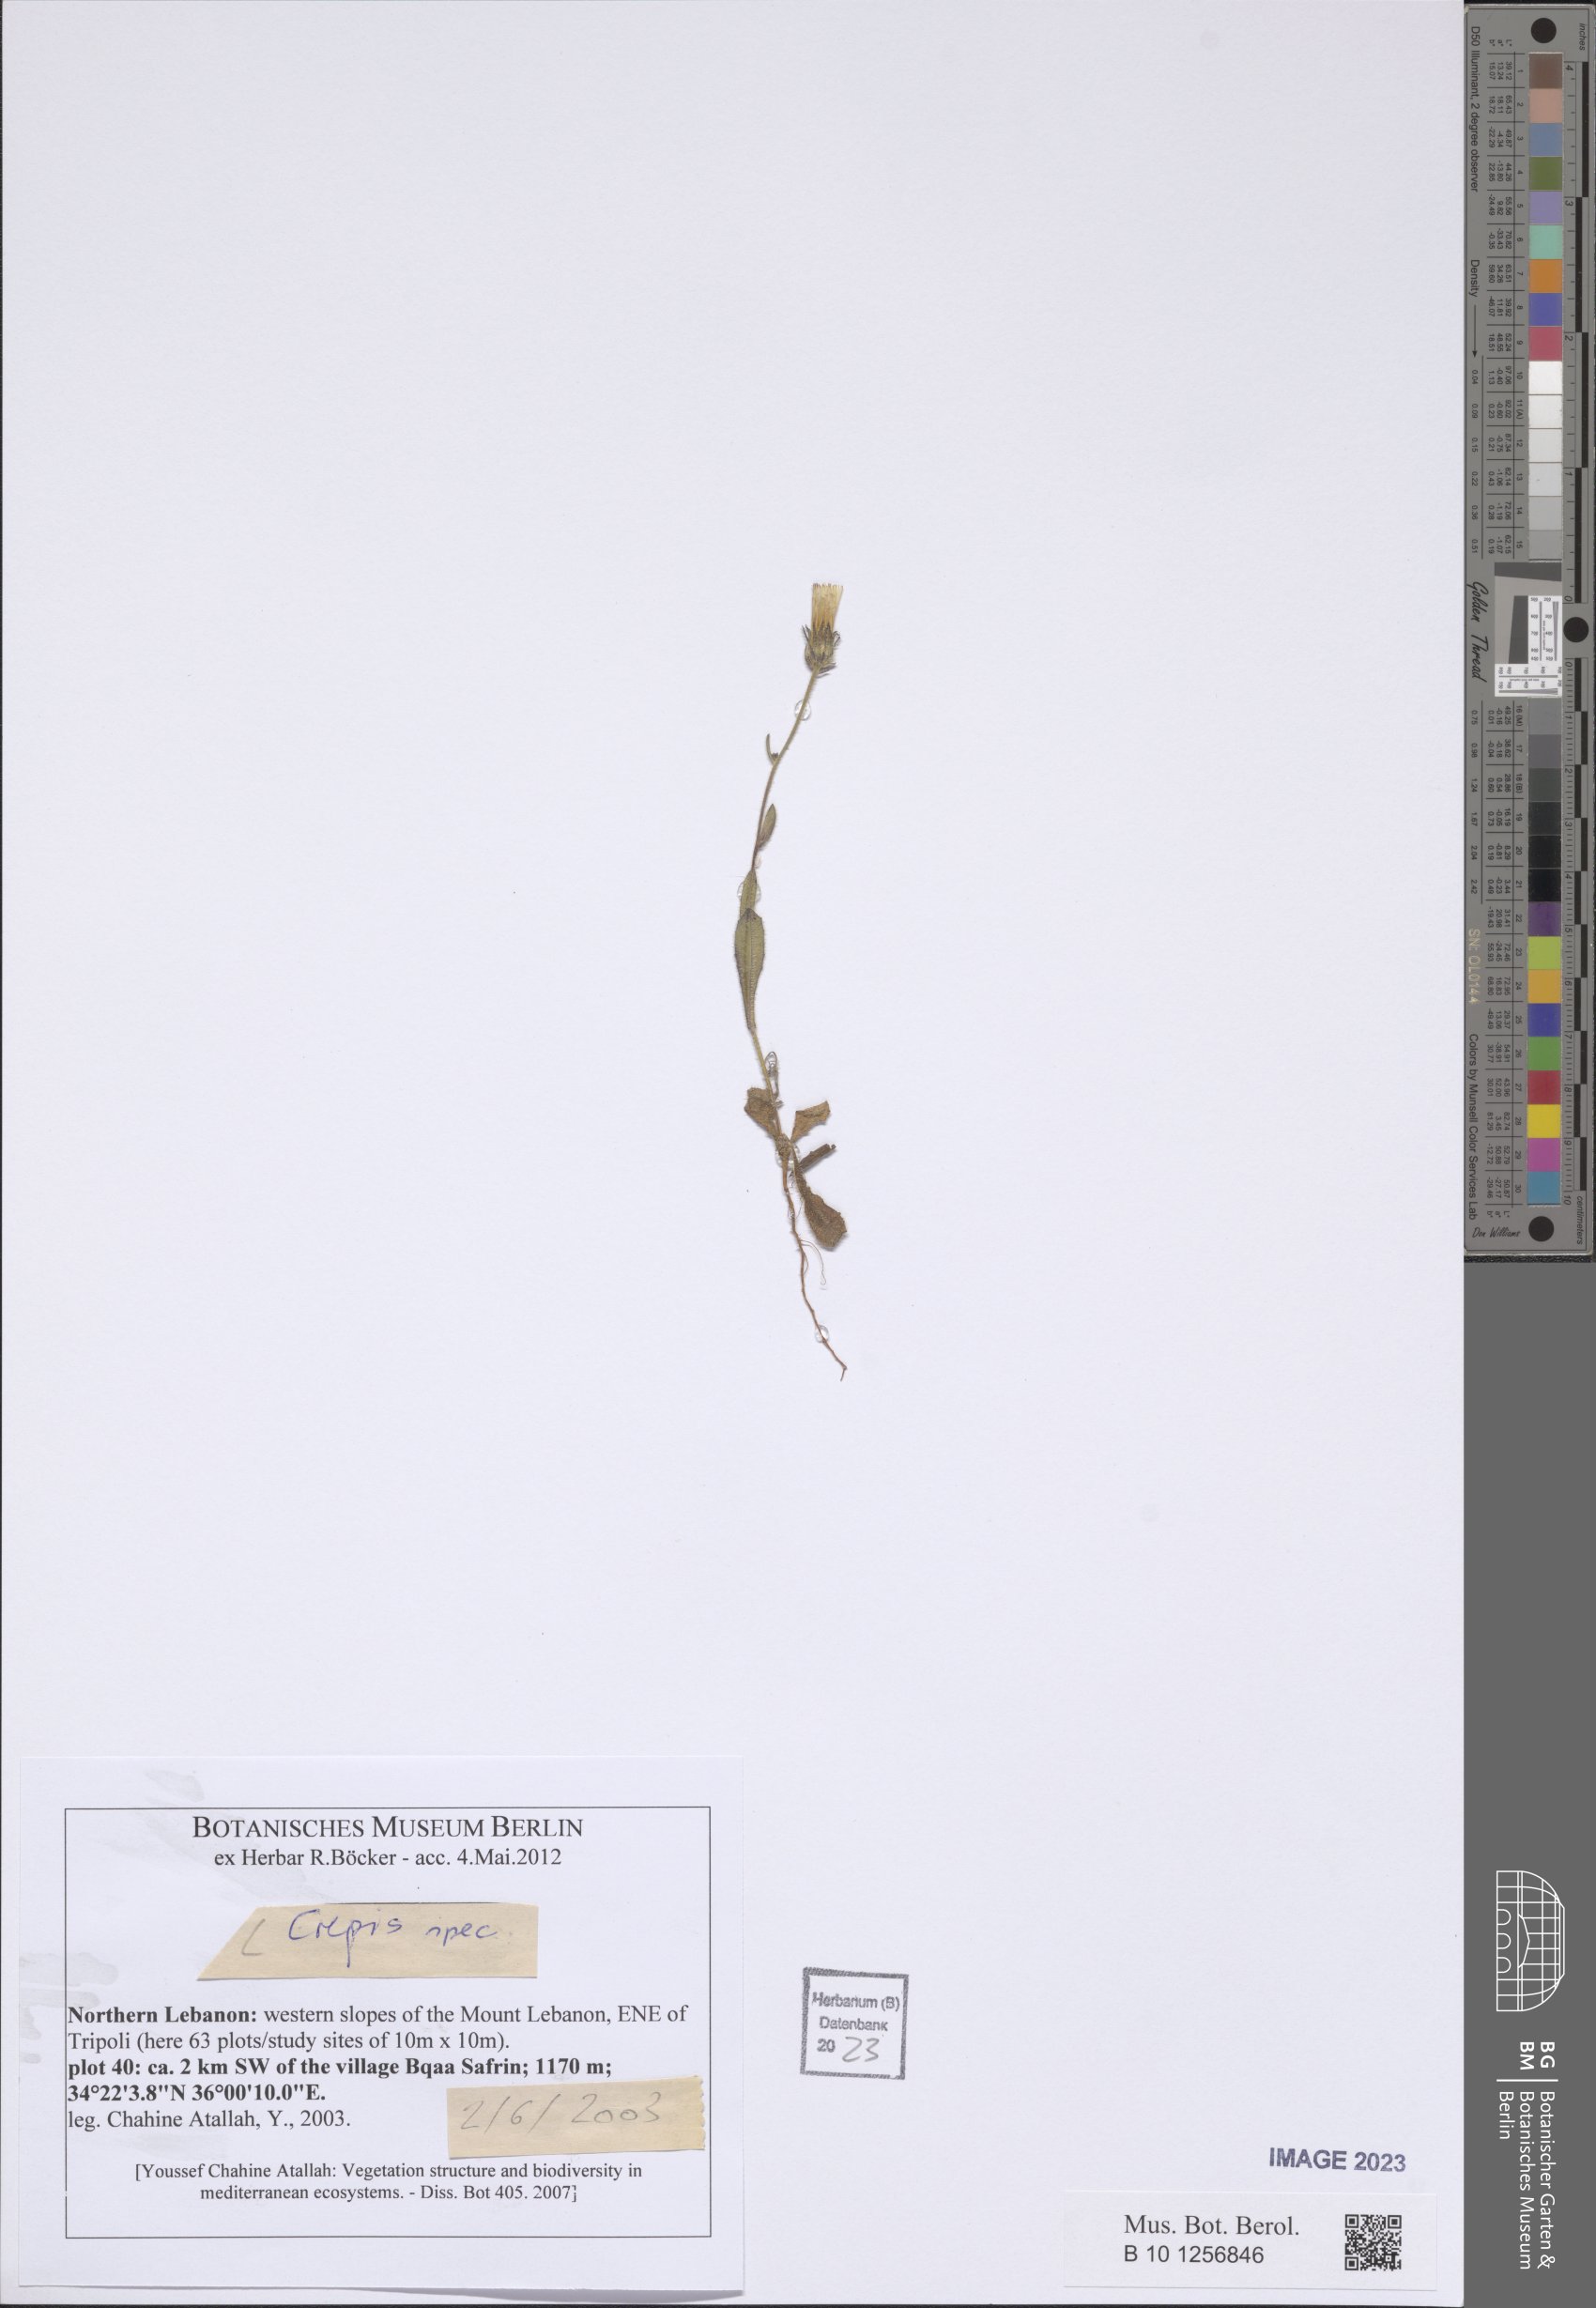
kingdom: Plantae
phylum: Tracheophyta
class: Magnoliopsida
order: Asterales
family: Asteraceae
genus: Crepis
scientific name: Crepis
